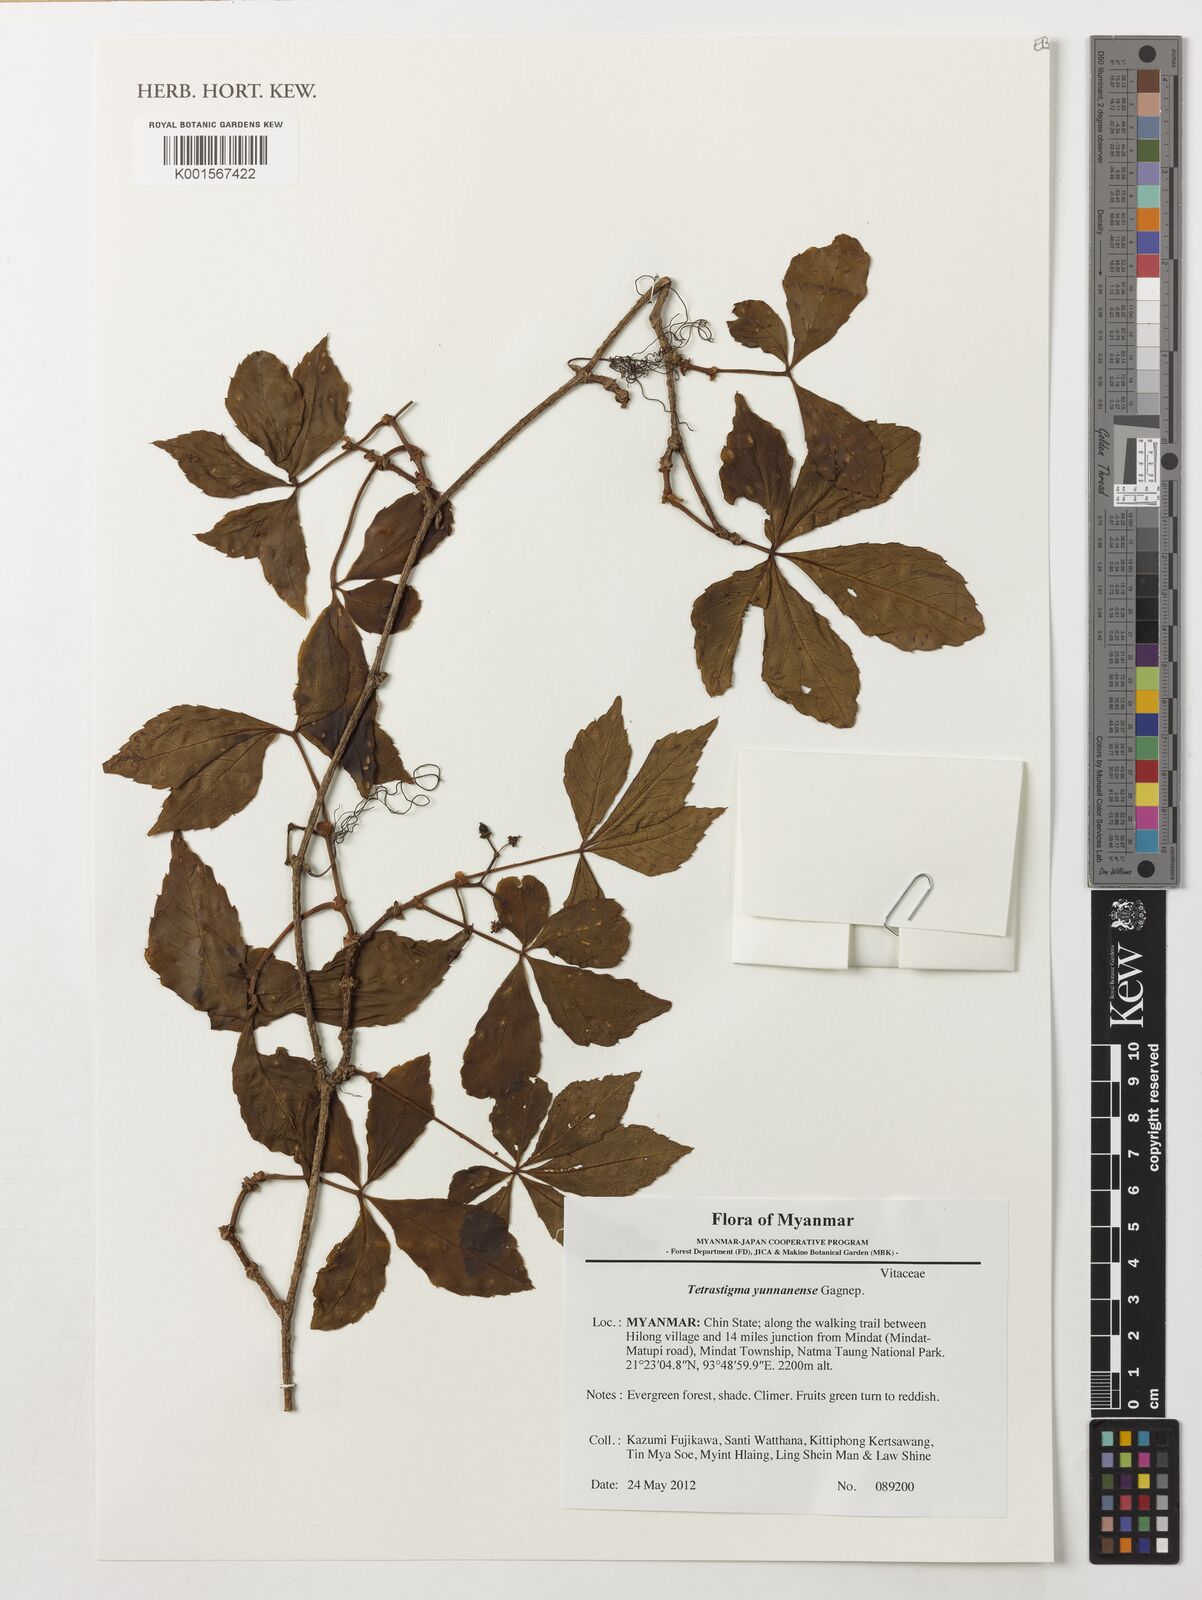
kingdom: Plantae
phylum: Tracheophyta
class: Magnoliopsida
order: Vitales
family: Vitaceae
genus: Tetrastigma
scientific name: Tetrastigma yunnanense
